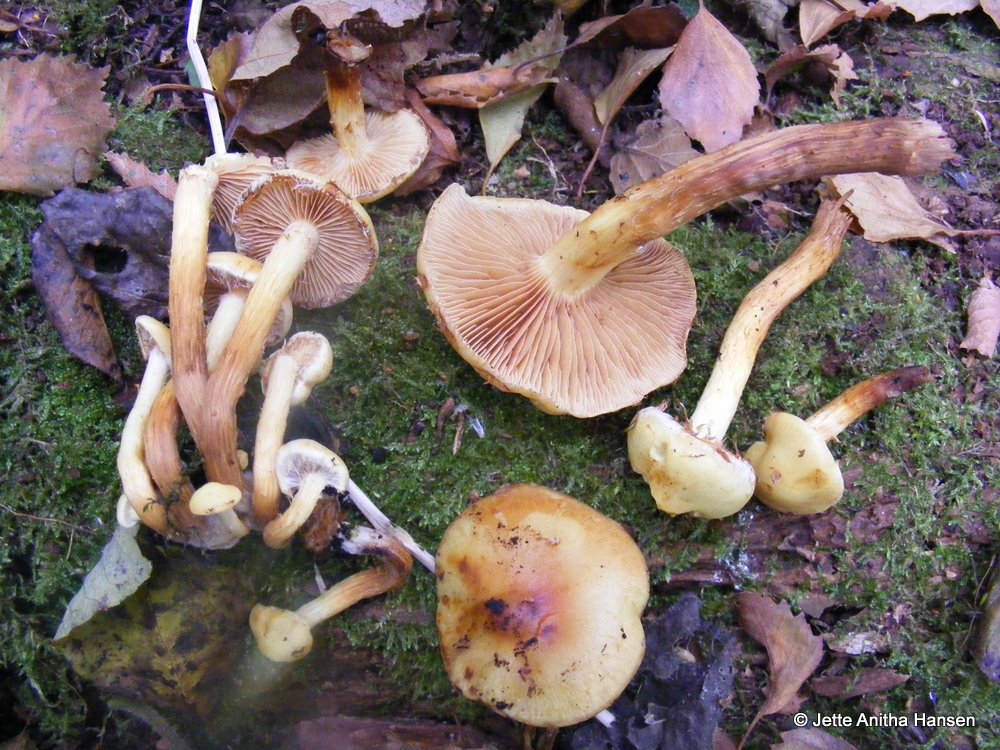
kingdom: Fungi
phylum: Basidiomycota
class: Agaricomycetes
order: Agaricales
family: Hymenogastraceae
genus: Flammula
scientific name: Flammula alnicola
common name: elle-skælhat
